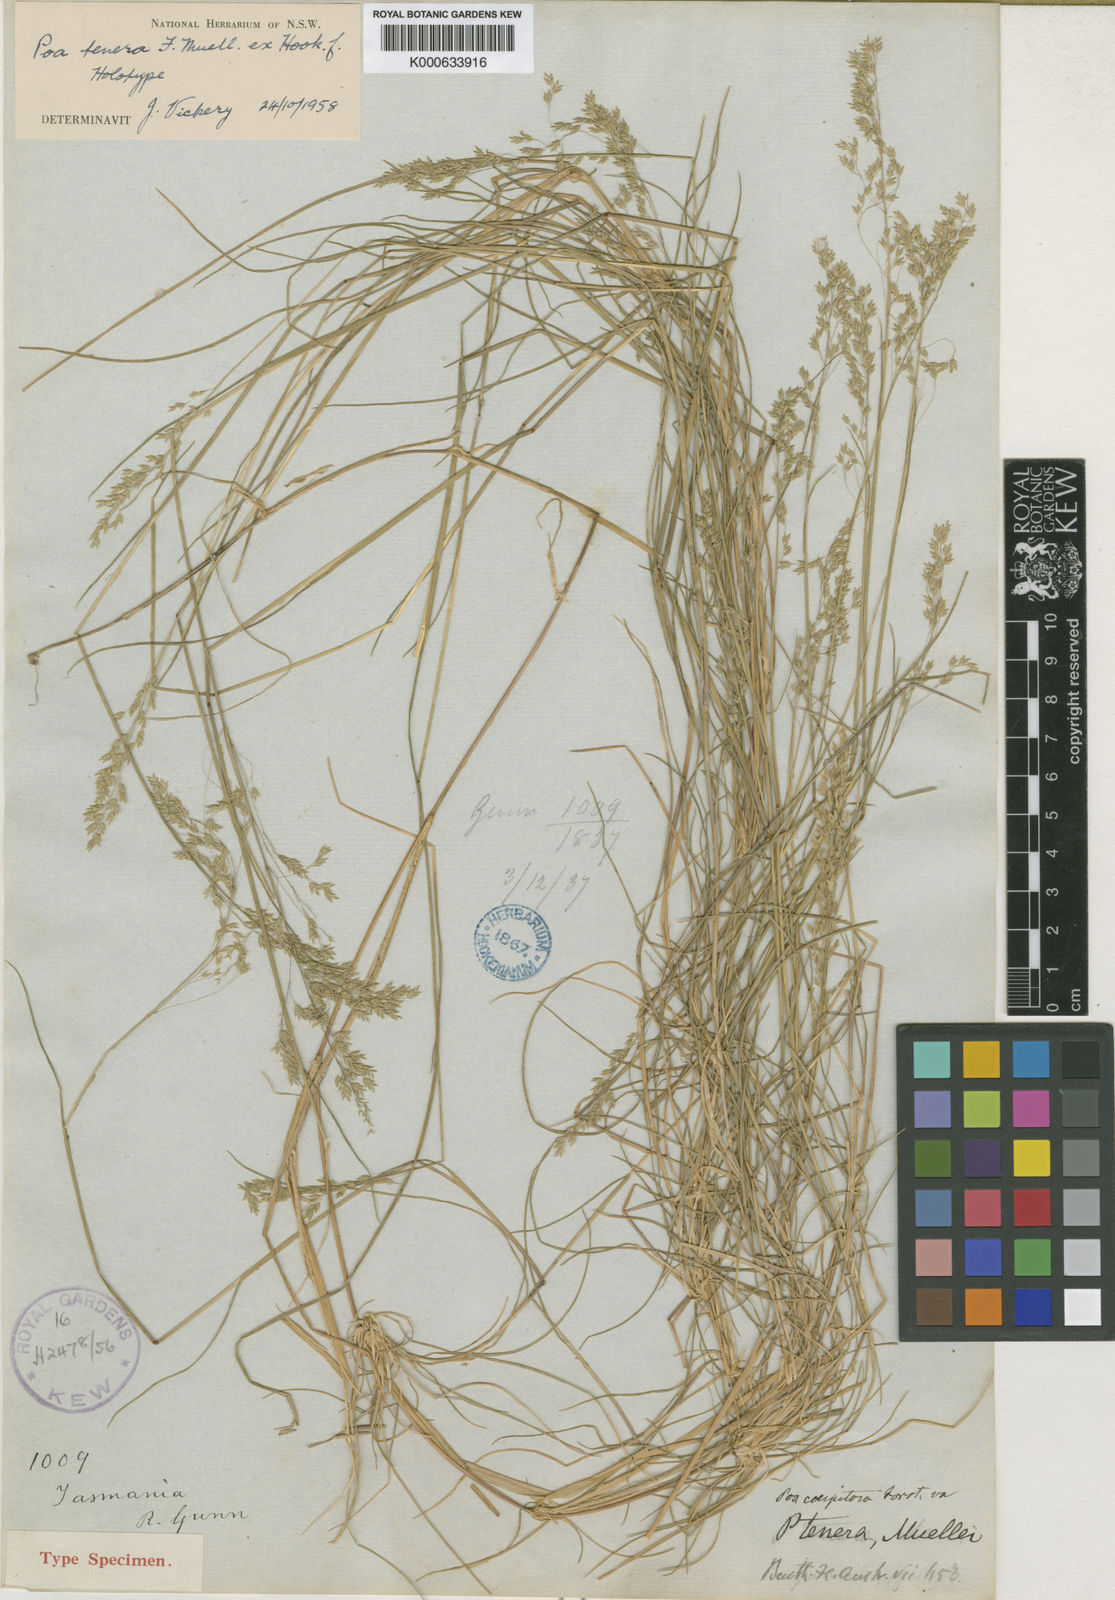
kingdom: Plantae
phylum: Tracheophyta
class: Liliopsida
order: Poales
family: Poaceae
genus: Poa
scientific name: Poa tenera
